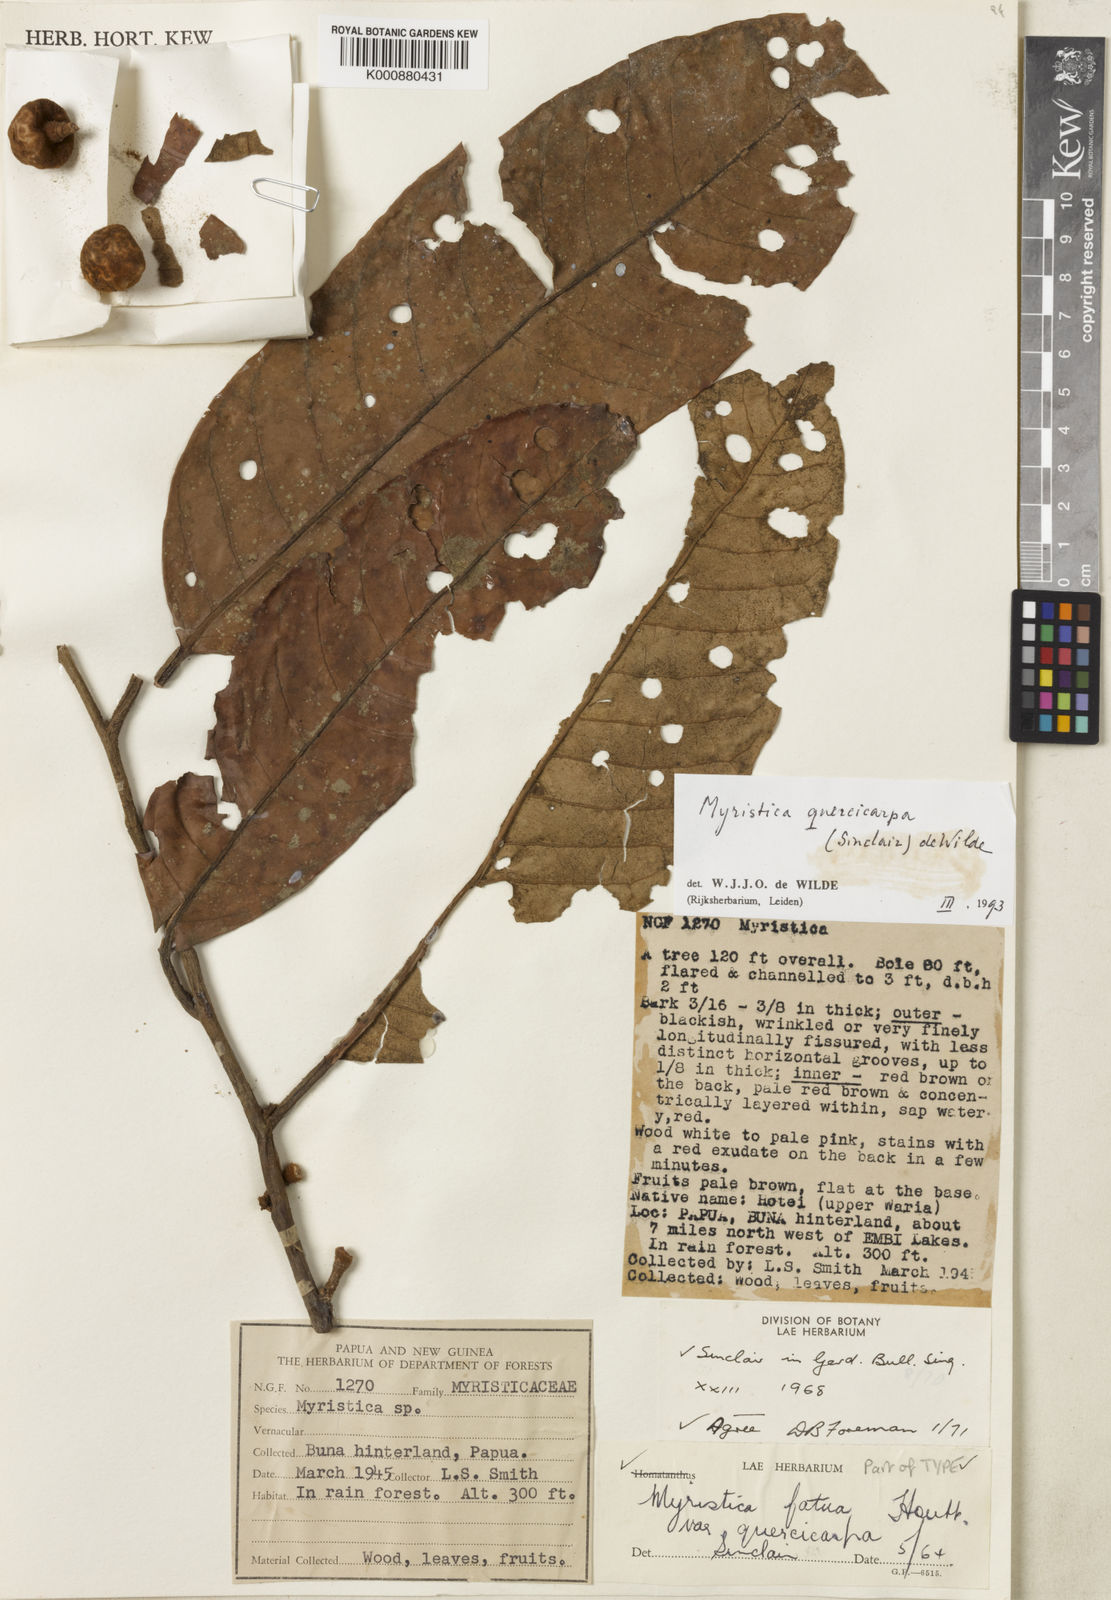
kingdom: Plantae
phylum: Tracheophyta
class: Magnoliopsida
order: Magnoliales
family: Myristicaceae
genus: Myristica
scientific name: Myristica quercicarpa
